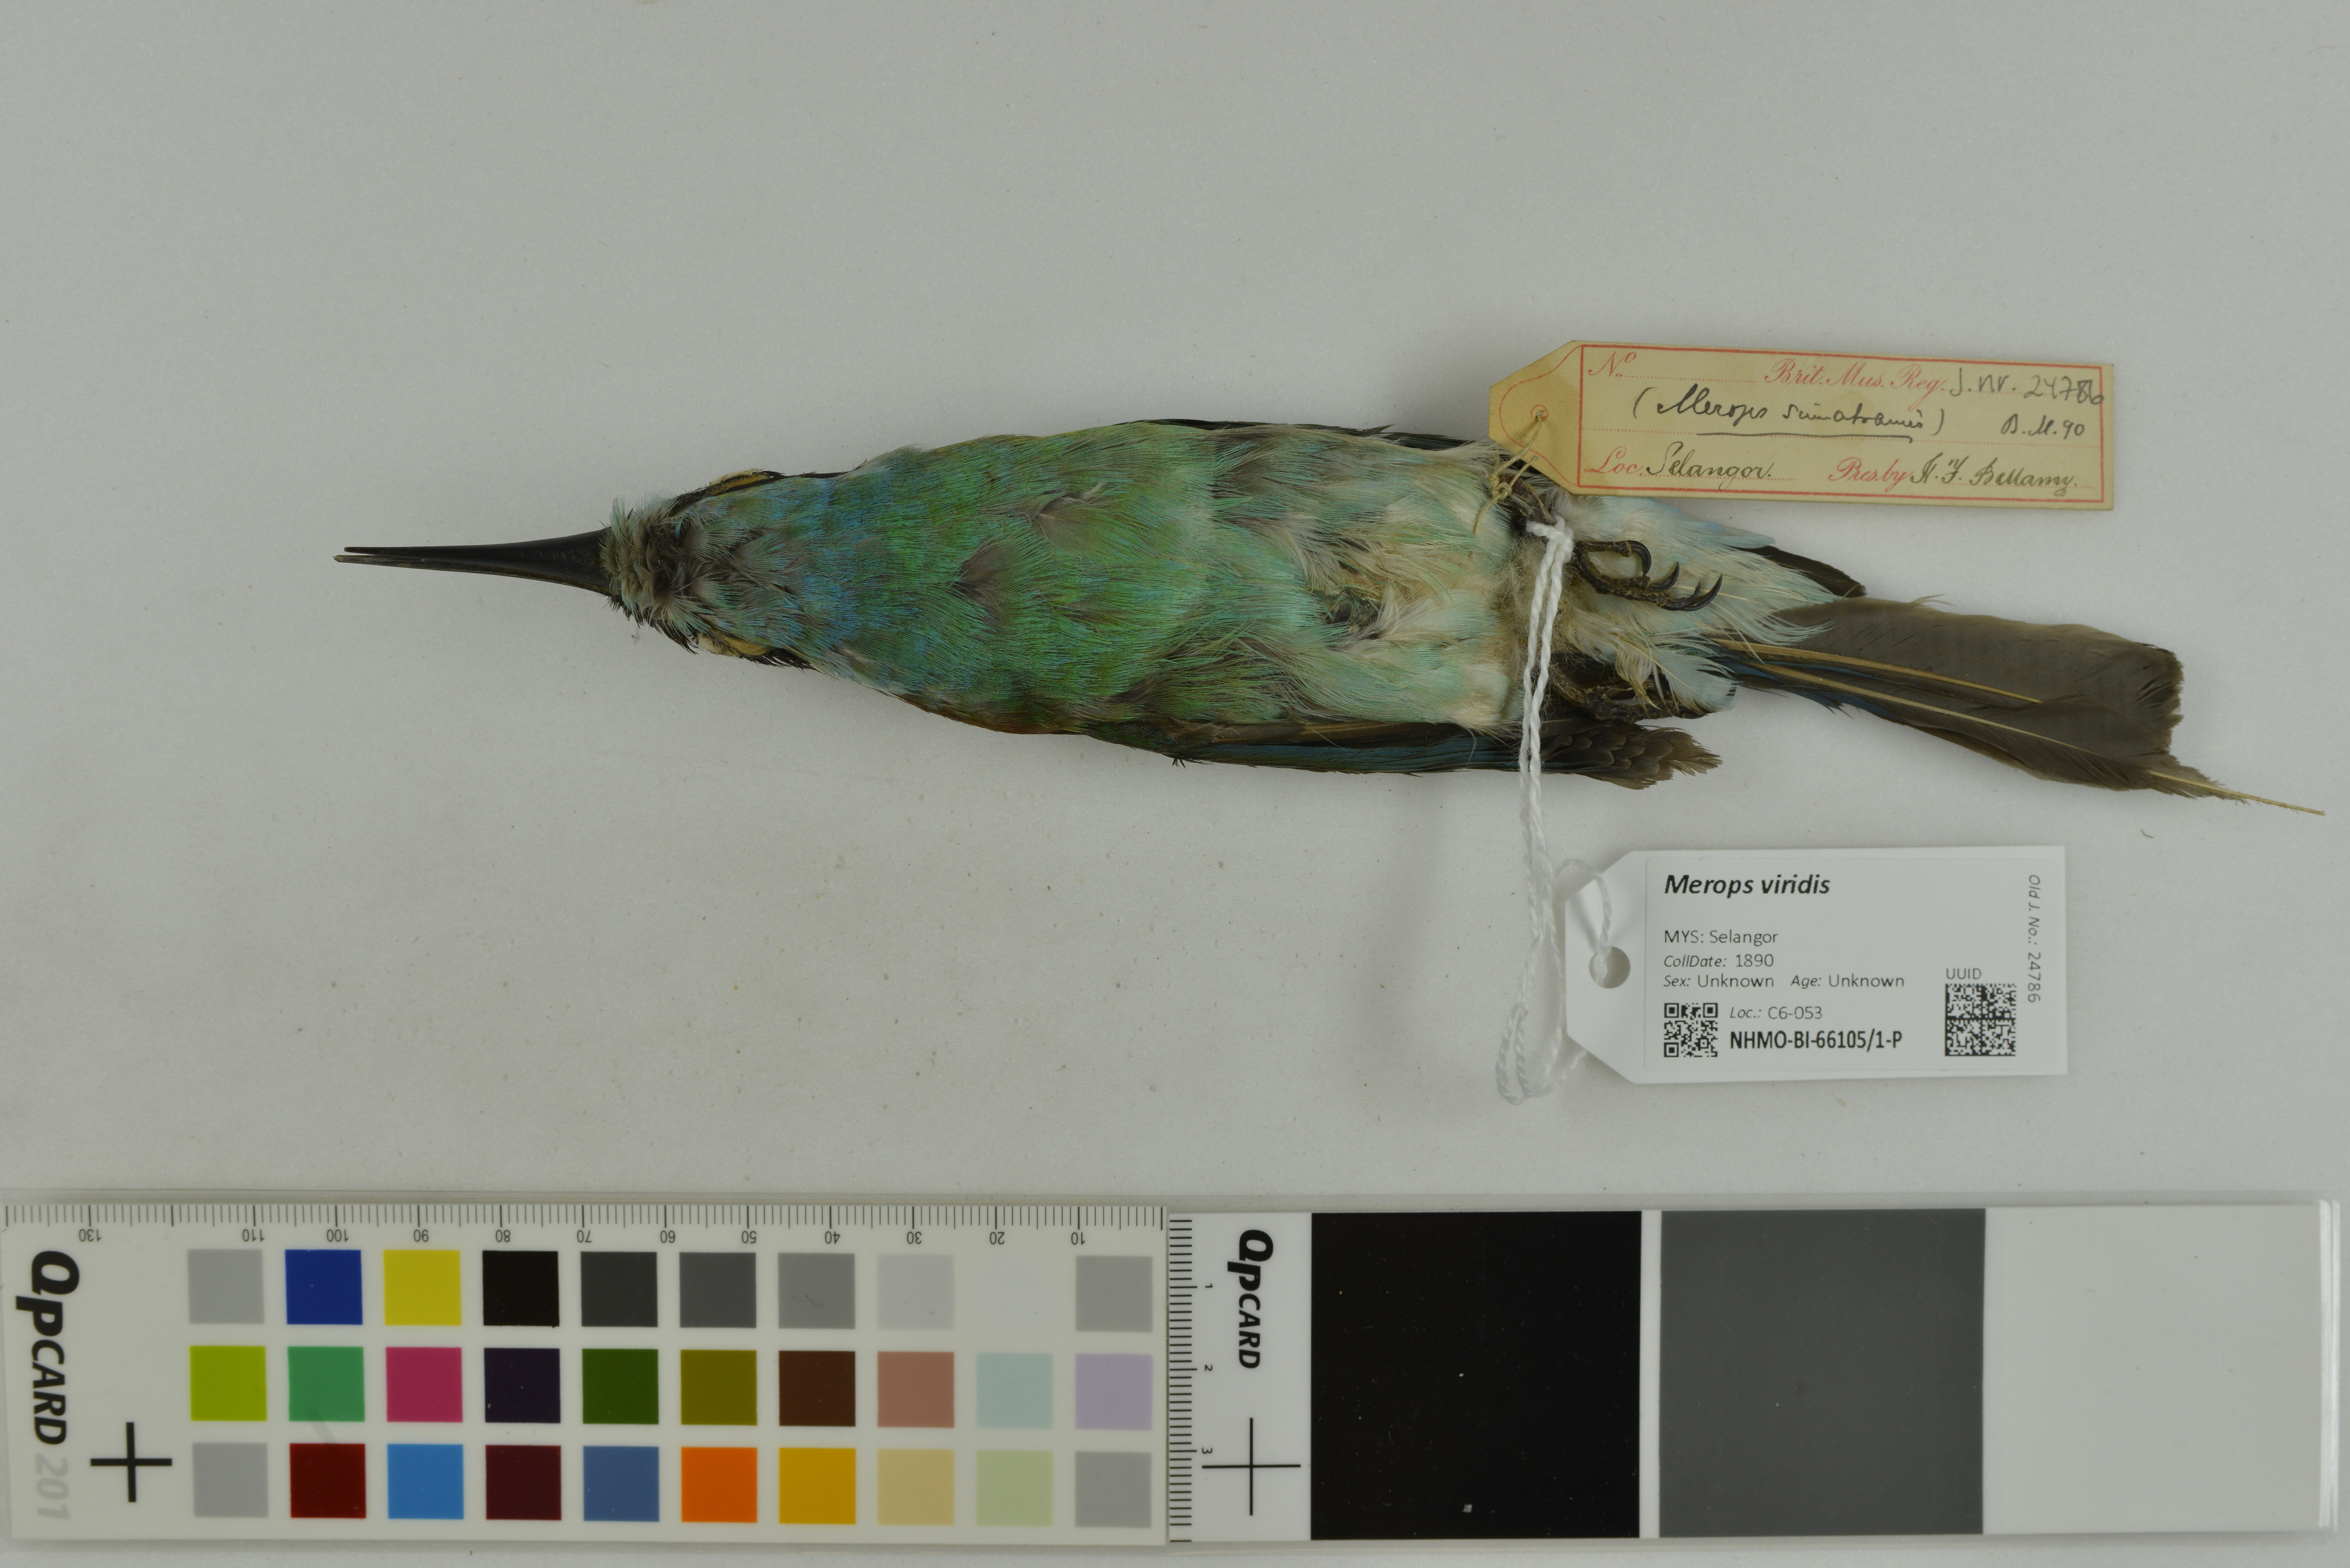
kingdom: Animalia
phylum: Chordata
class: Aves
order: Coraciiformes
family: Meropidae
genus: Merops
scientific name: Merops viridis
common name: Blue-throated bee-eater
